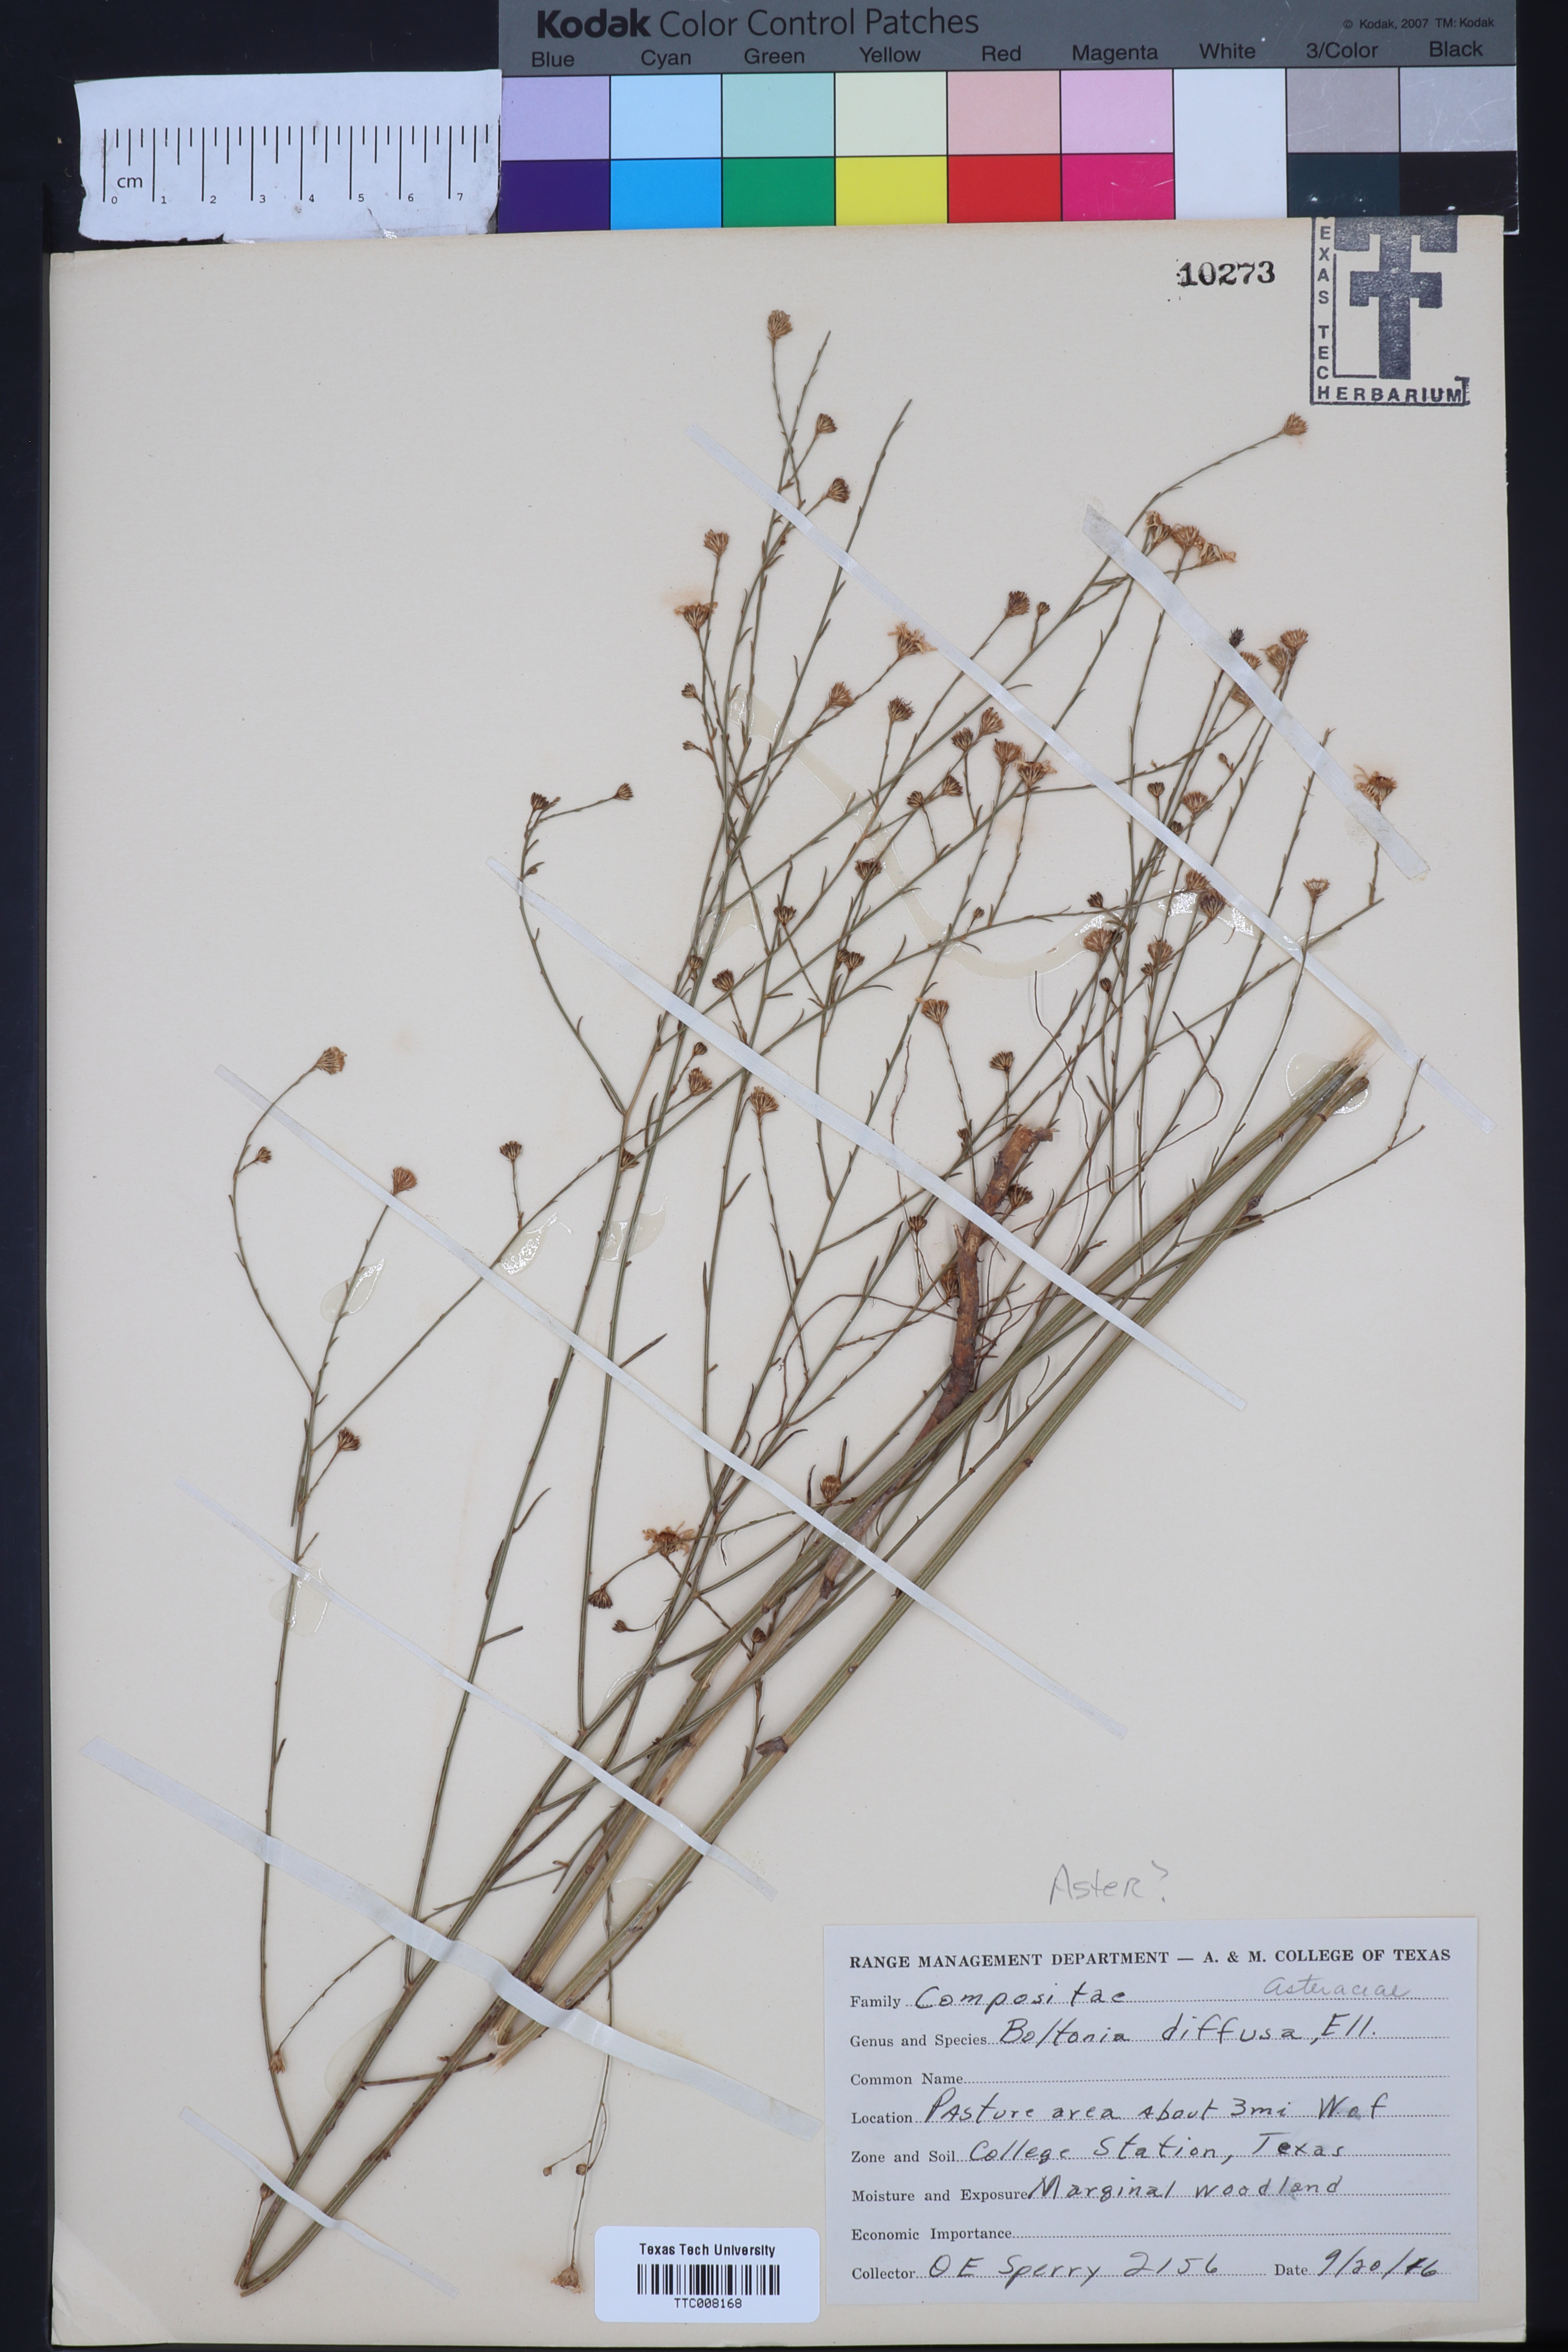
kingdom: Plantae
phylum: Tracheophyta
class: Magnoliopsida
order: Asterales
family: Asteraceae
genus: Boltonia
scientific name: Boltonia diffusa
